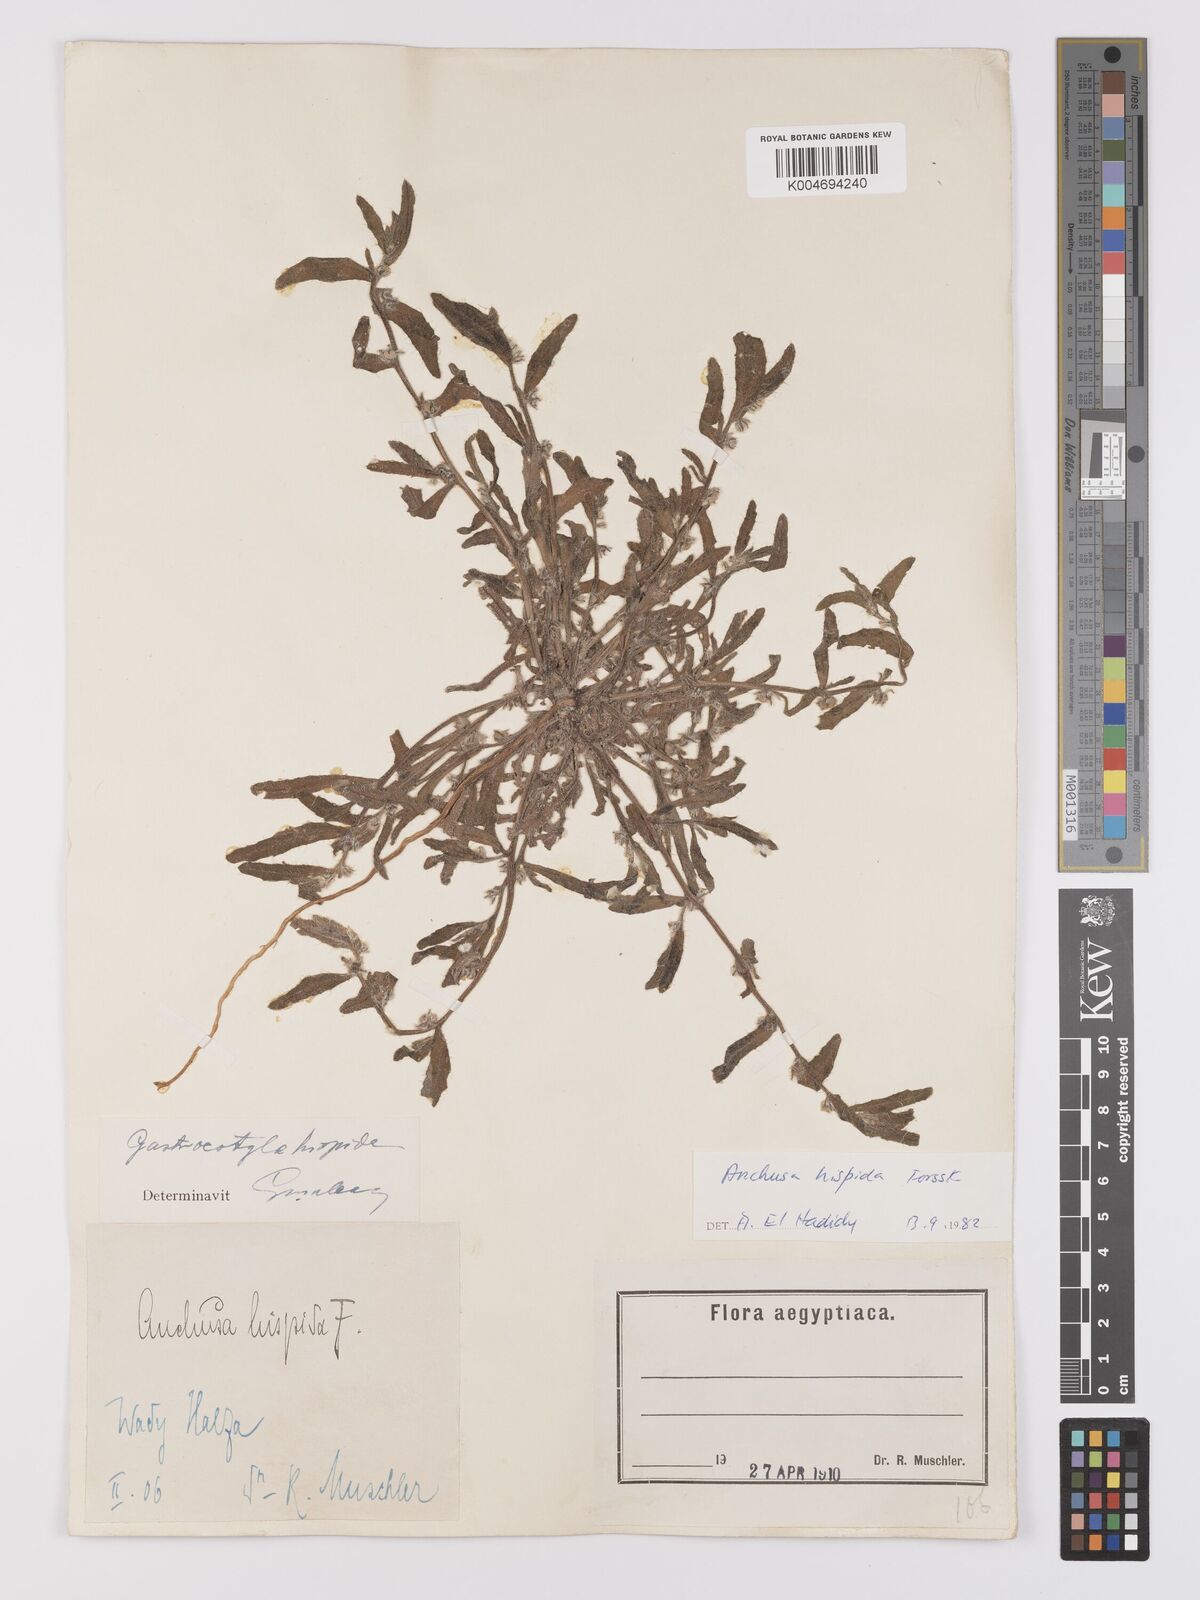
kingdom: Plantae
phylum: Tracheophyta
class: Magnoliopsida
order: Boraginales
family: Boraginaceae
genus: Gastrocotyle
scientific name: Gastrocotyle hispida
